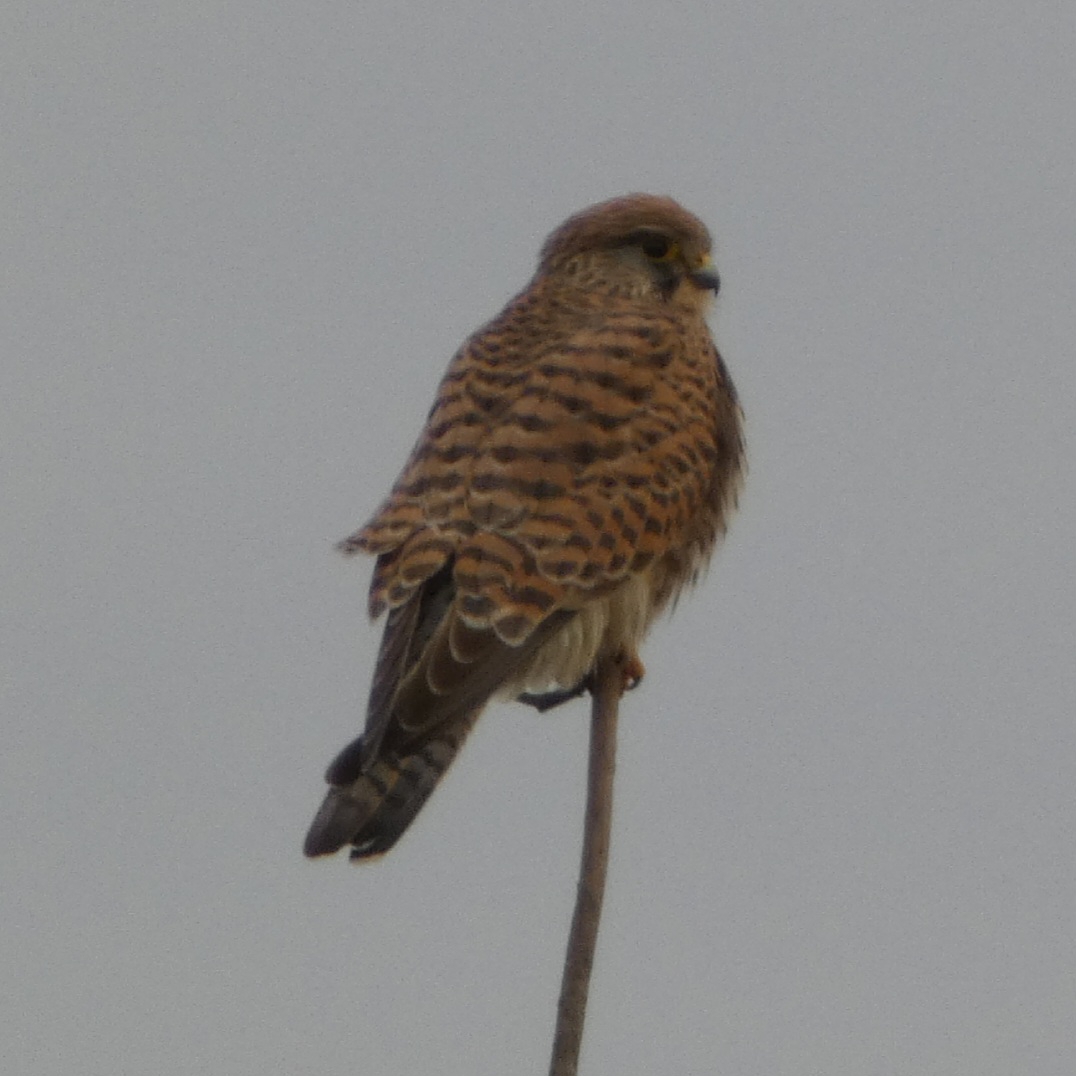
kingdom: Animalia
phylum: Chordata
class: Aves
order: Falconiformes
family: Falconidae
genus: Falco
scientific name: Falco tinnunculus
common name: Tårnfalk
